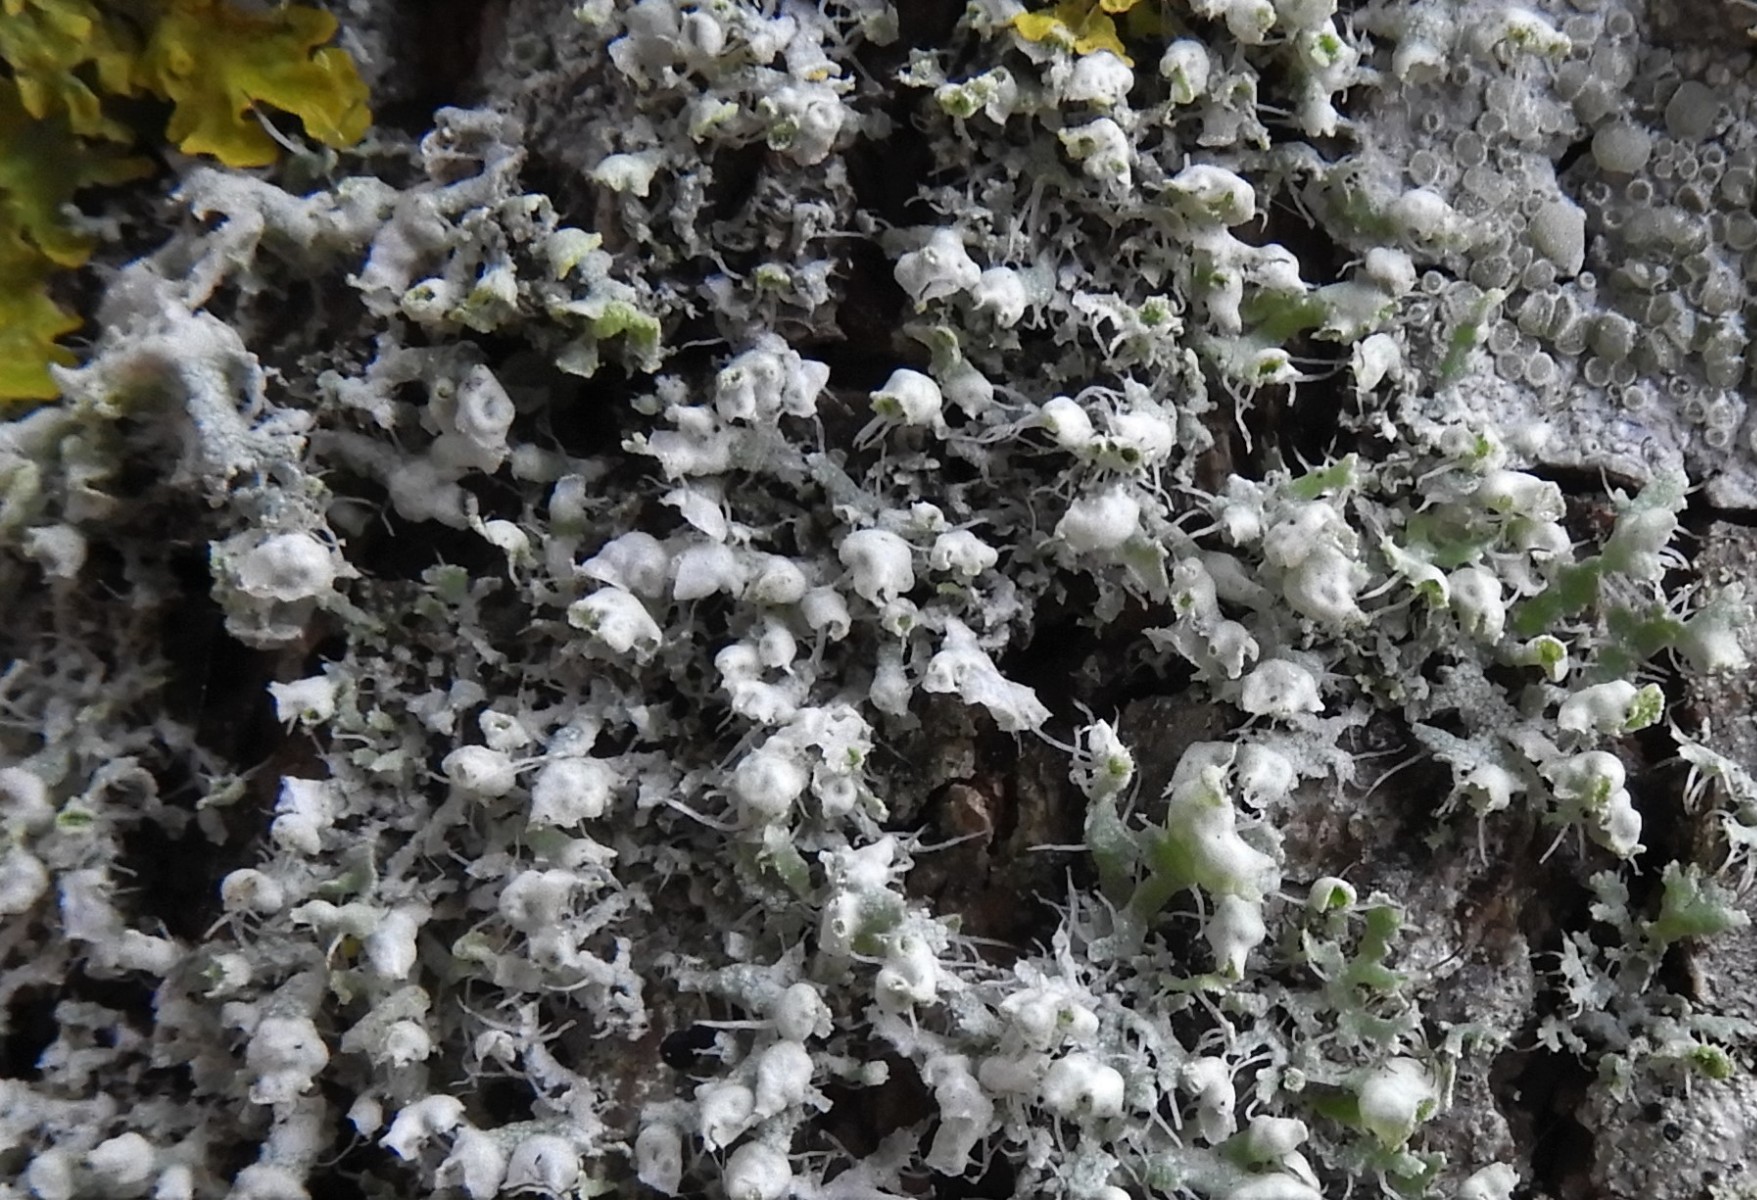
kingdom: Fungi
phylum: Ascomycota
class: Lecanoromycetes
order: Caliciales
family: Physciaceae
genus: Physcia
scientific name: Physcia adscendens
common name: hætte-rosetlav
